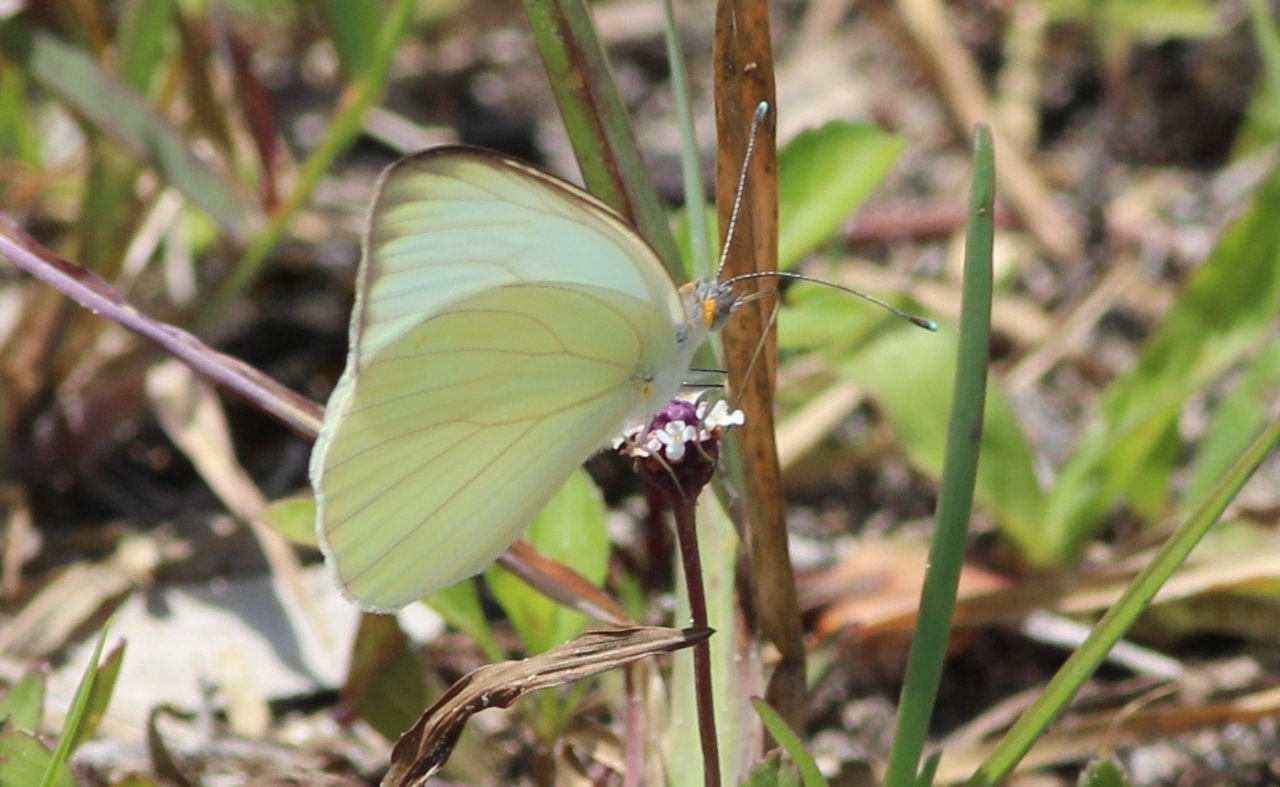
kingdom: Animalia
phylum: Arthropoda
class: Insecta
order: Lepidoptera
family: Pieridae
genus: Ascia
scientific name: Ascia monuste
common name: Great Southern White
